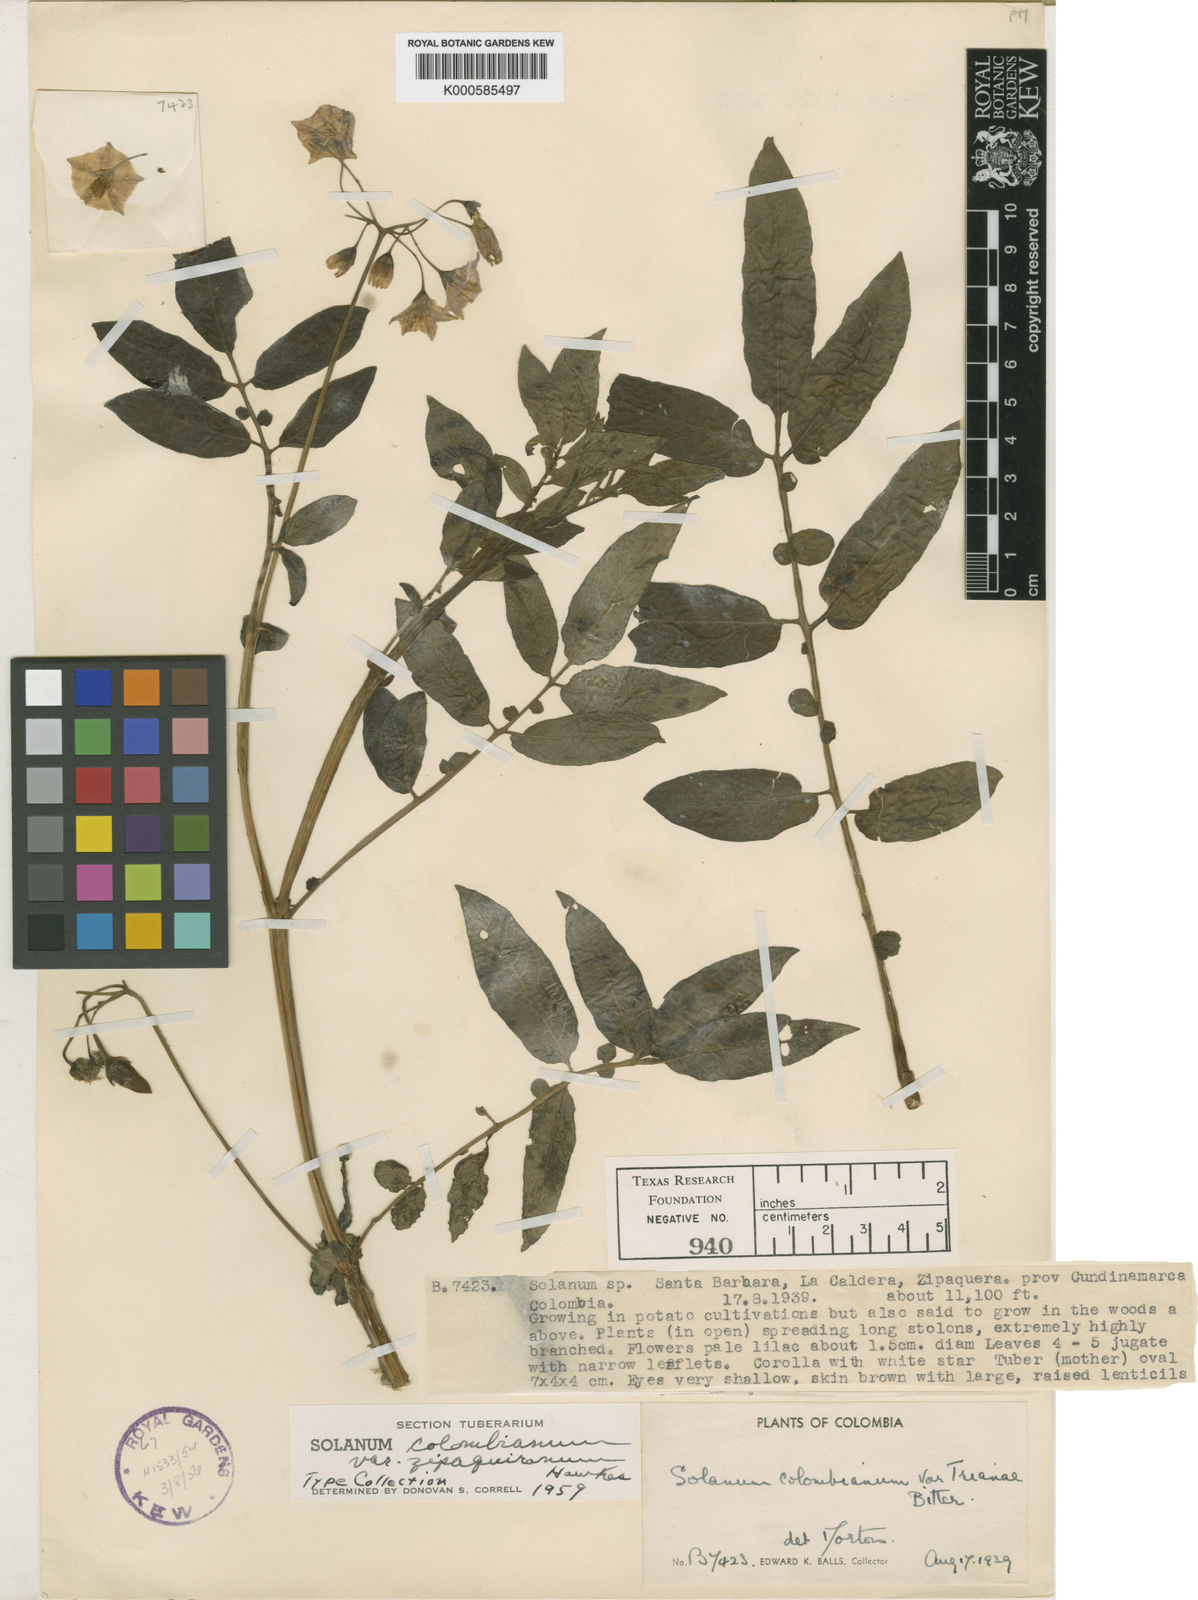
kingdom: Plantae
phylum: Tracheophyta
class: Magnoliopsida
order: Solanales
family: Solanaceae
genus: Solanum
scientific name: Solanum colombianum
